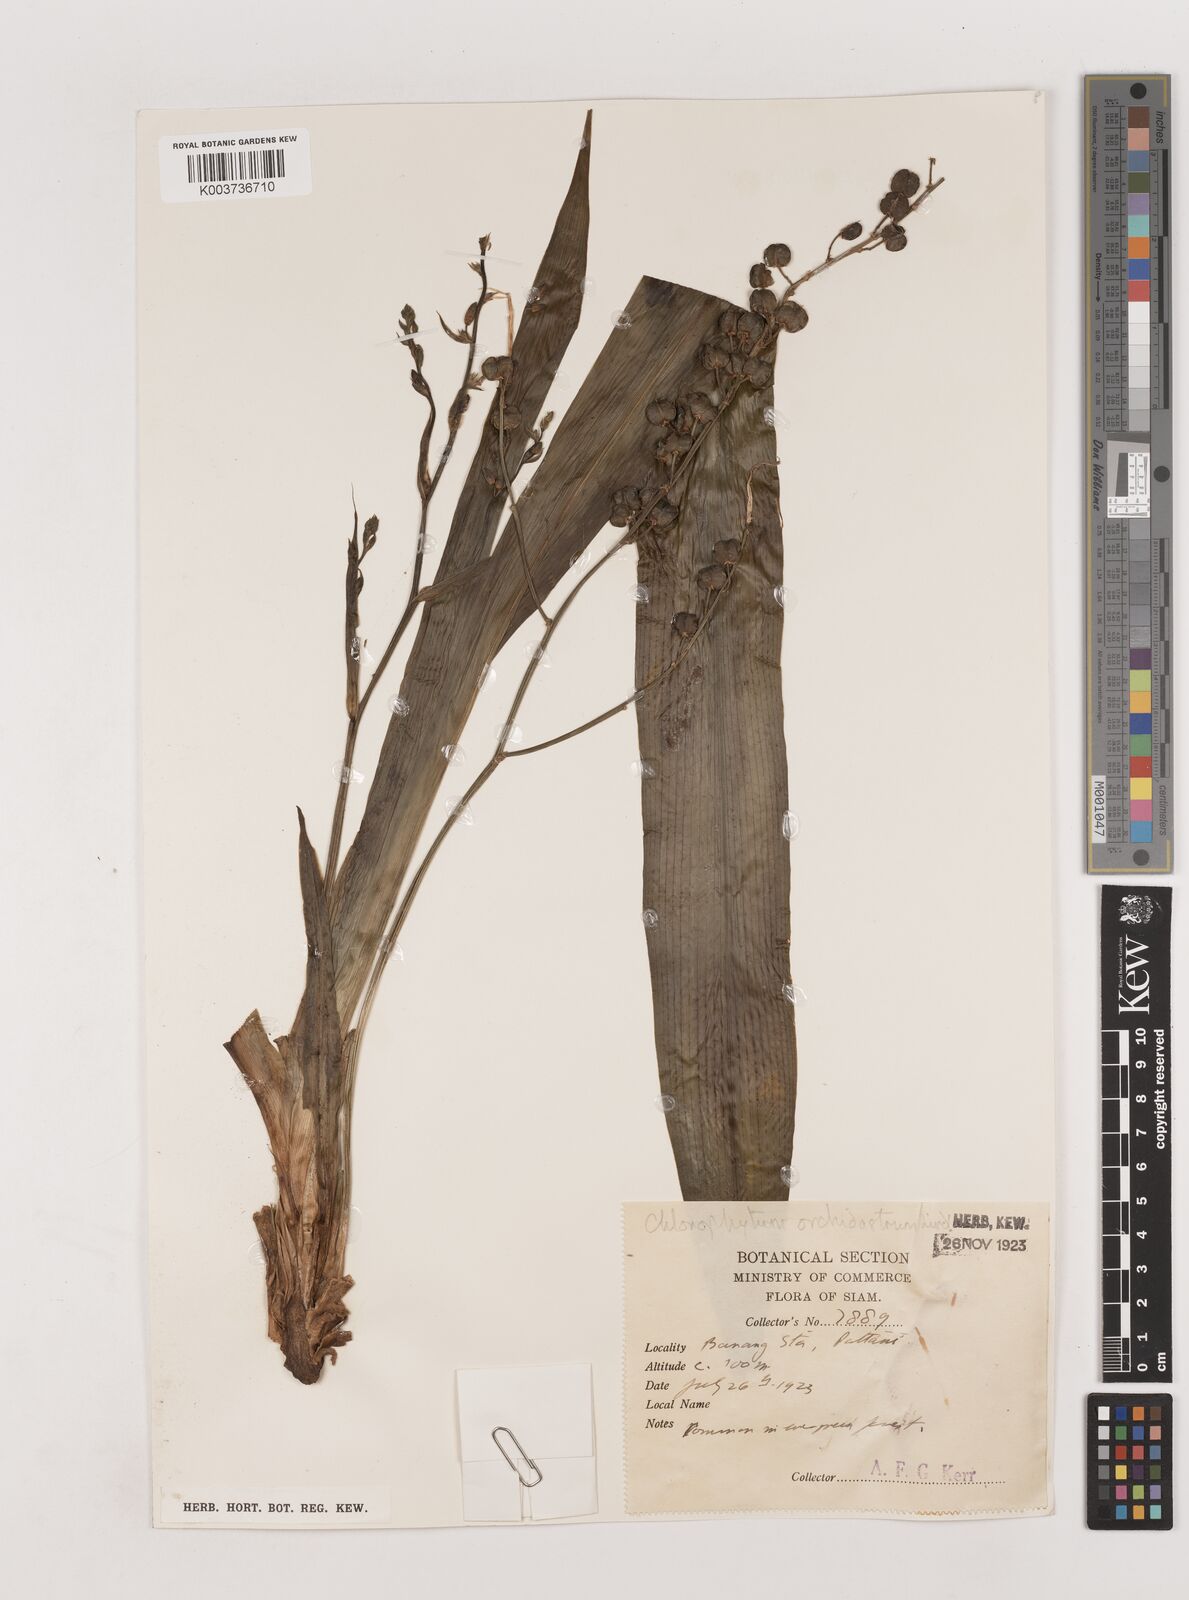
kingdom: Plantae
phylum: Tracheophyta
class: Liliopsida
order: Asparagales
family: Asparagaceae
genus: Chlorophytum
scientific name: Chlorophytum orchidastrum
